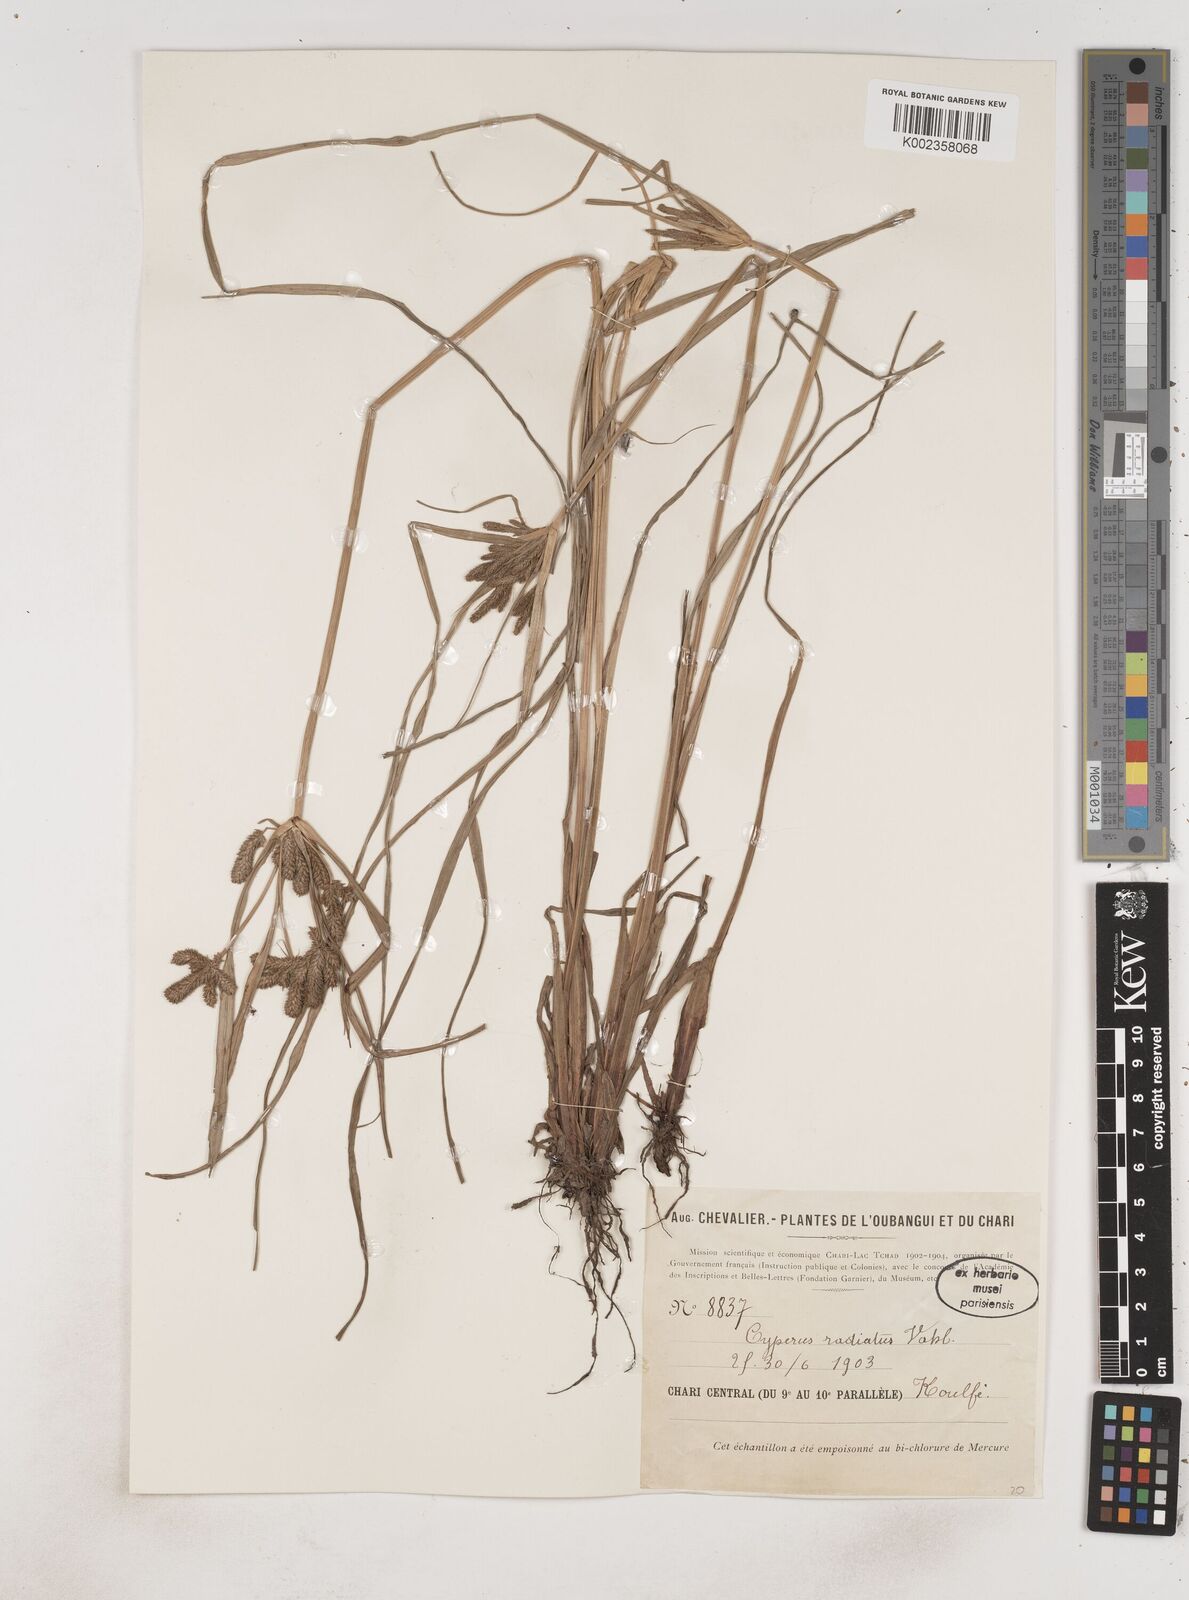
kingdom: Plantae
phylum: Tracheophyta
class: Liliopsida
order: Poales
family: Cyperaceae
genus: Cyperus
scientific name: Cyperus imbricatus
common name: Shingle flatsedge
